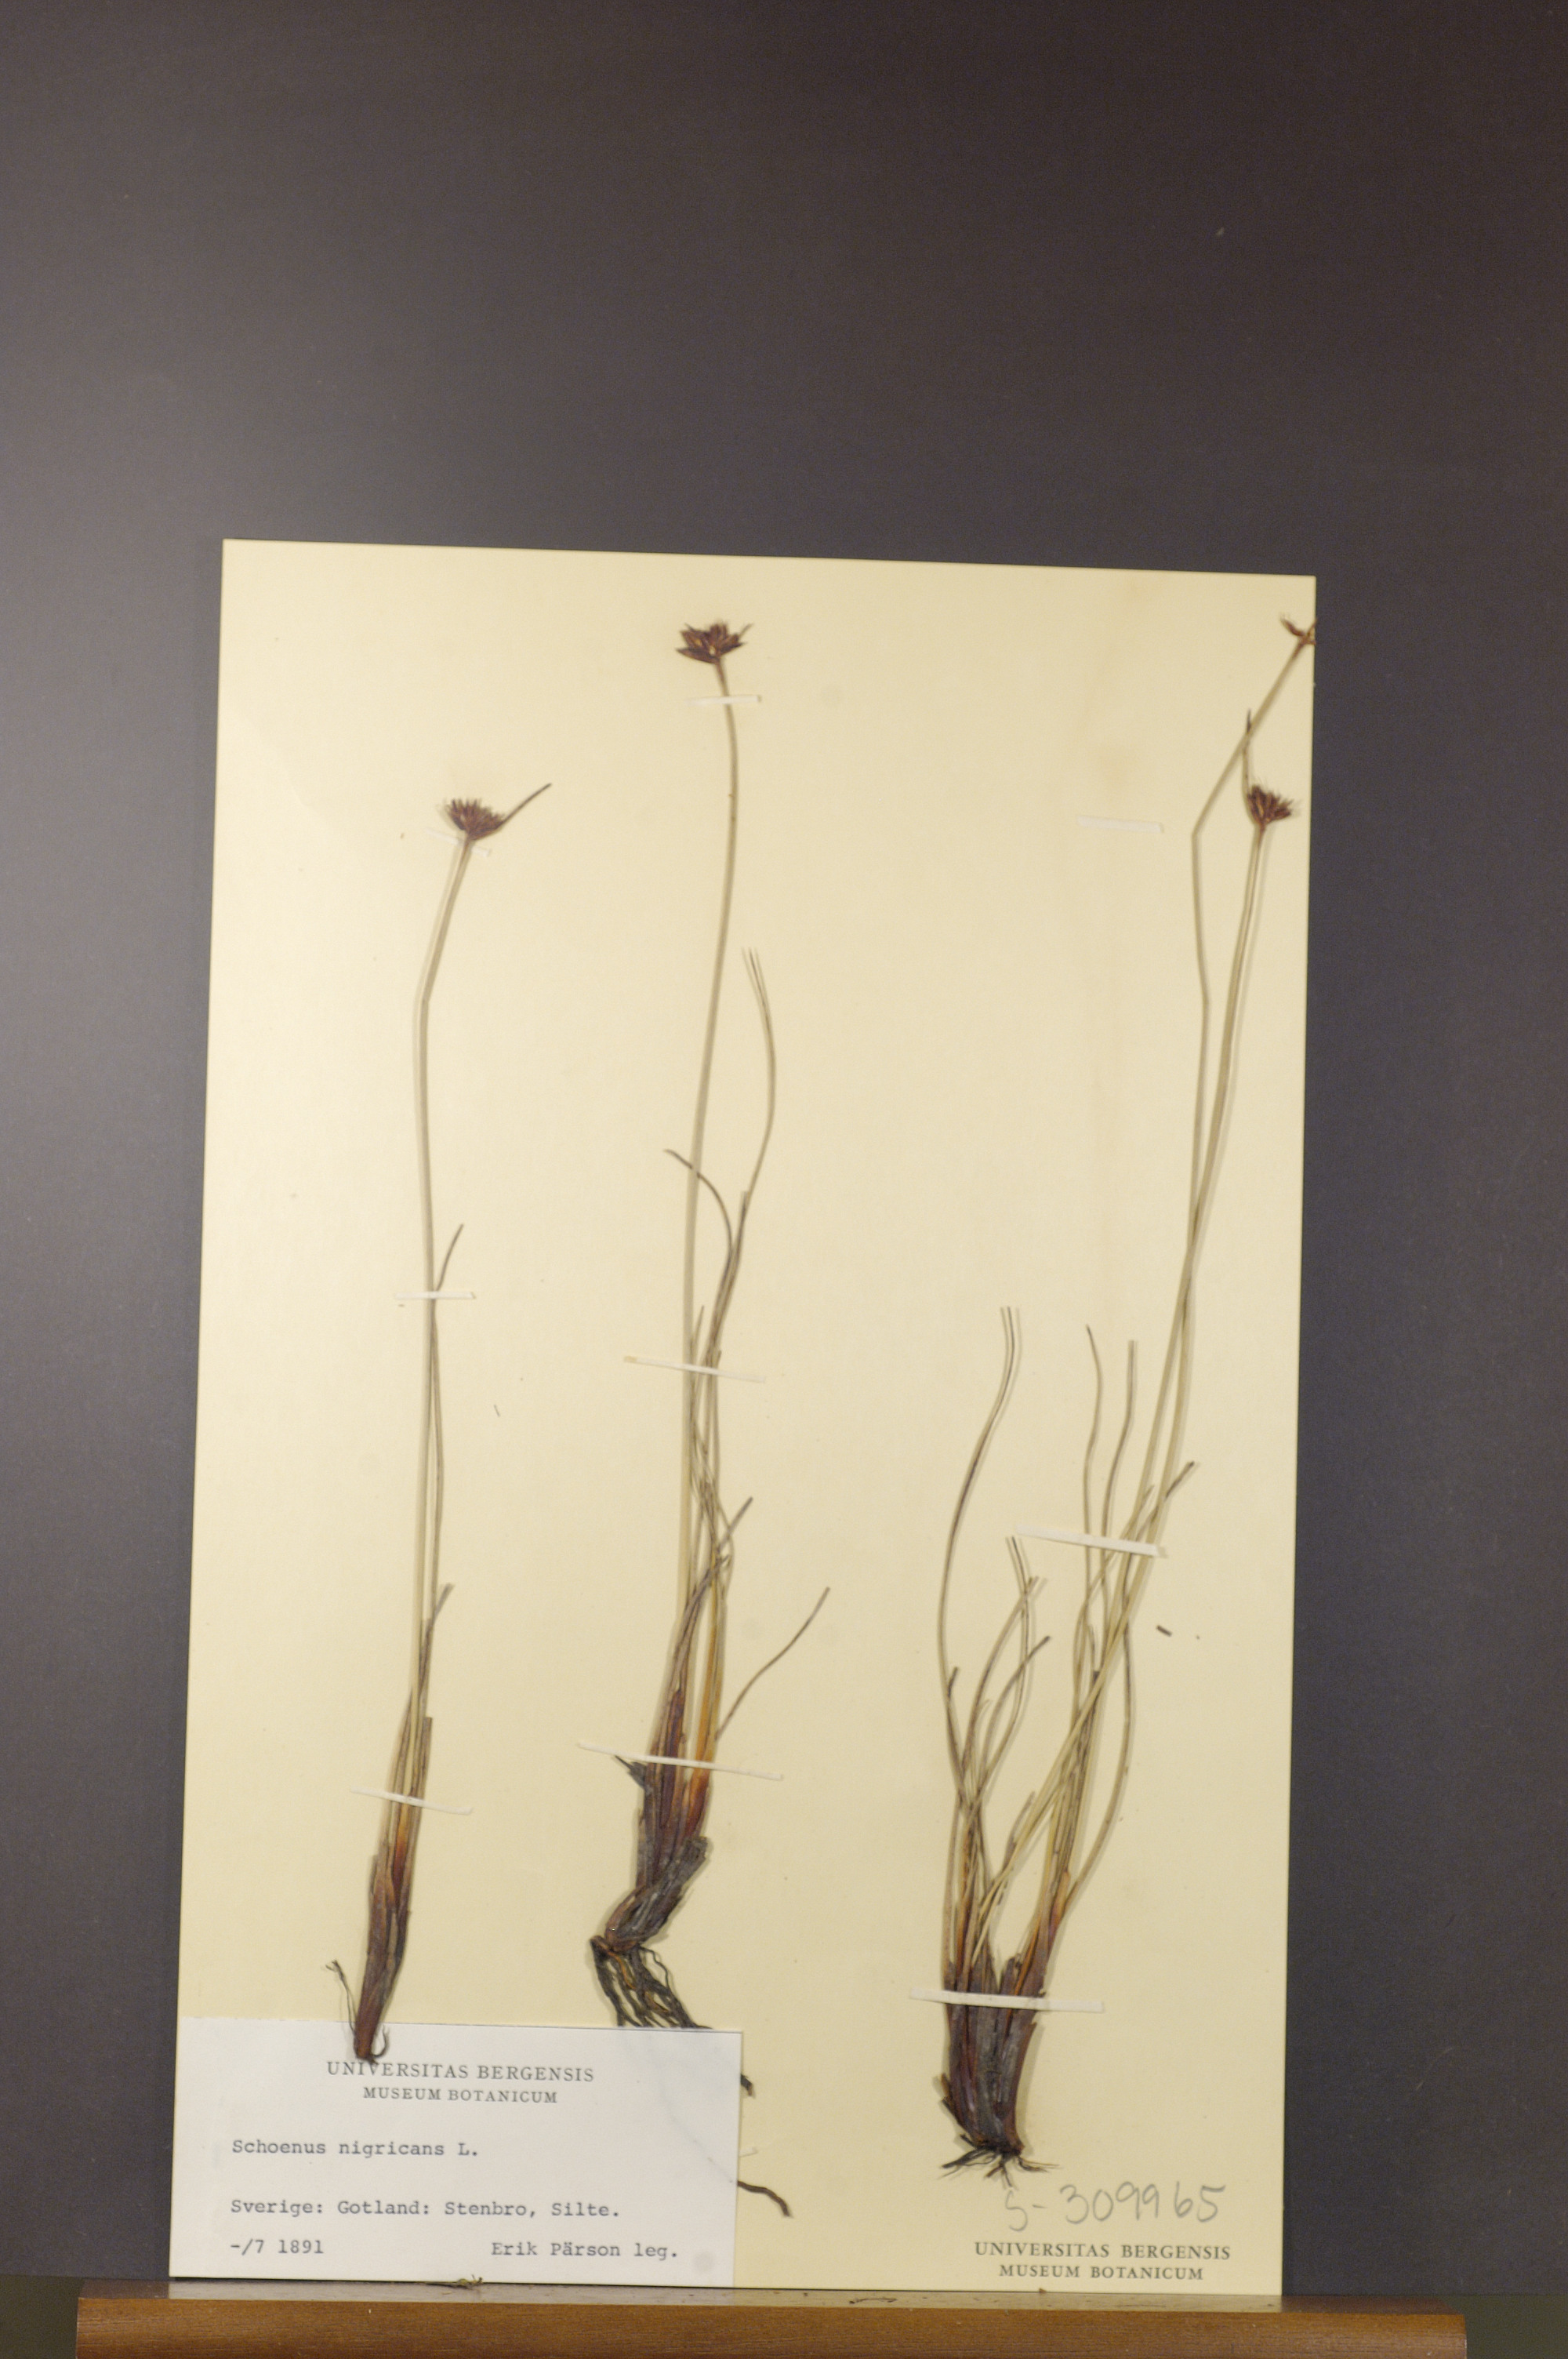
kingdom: Plantae
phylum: Tracheophyta
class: Liliopsida
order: Poales
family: Cyperaceae
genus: Schoenus
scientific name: Schoenus nigricans
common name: Black bog-rush
